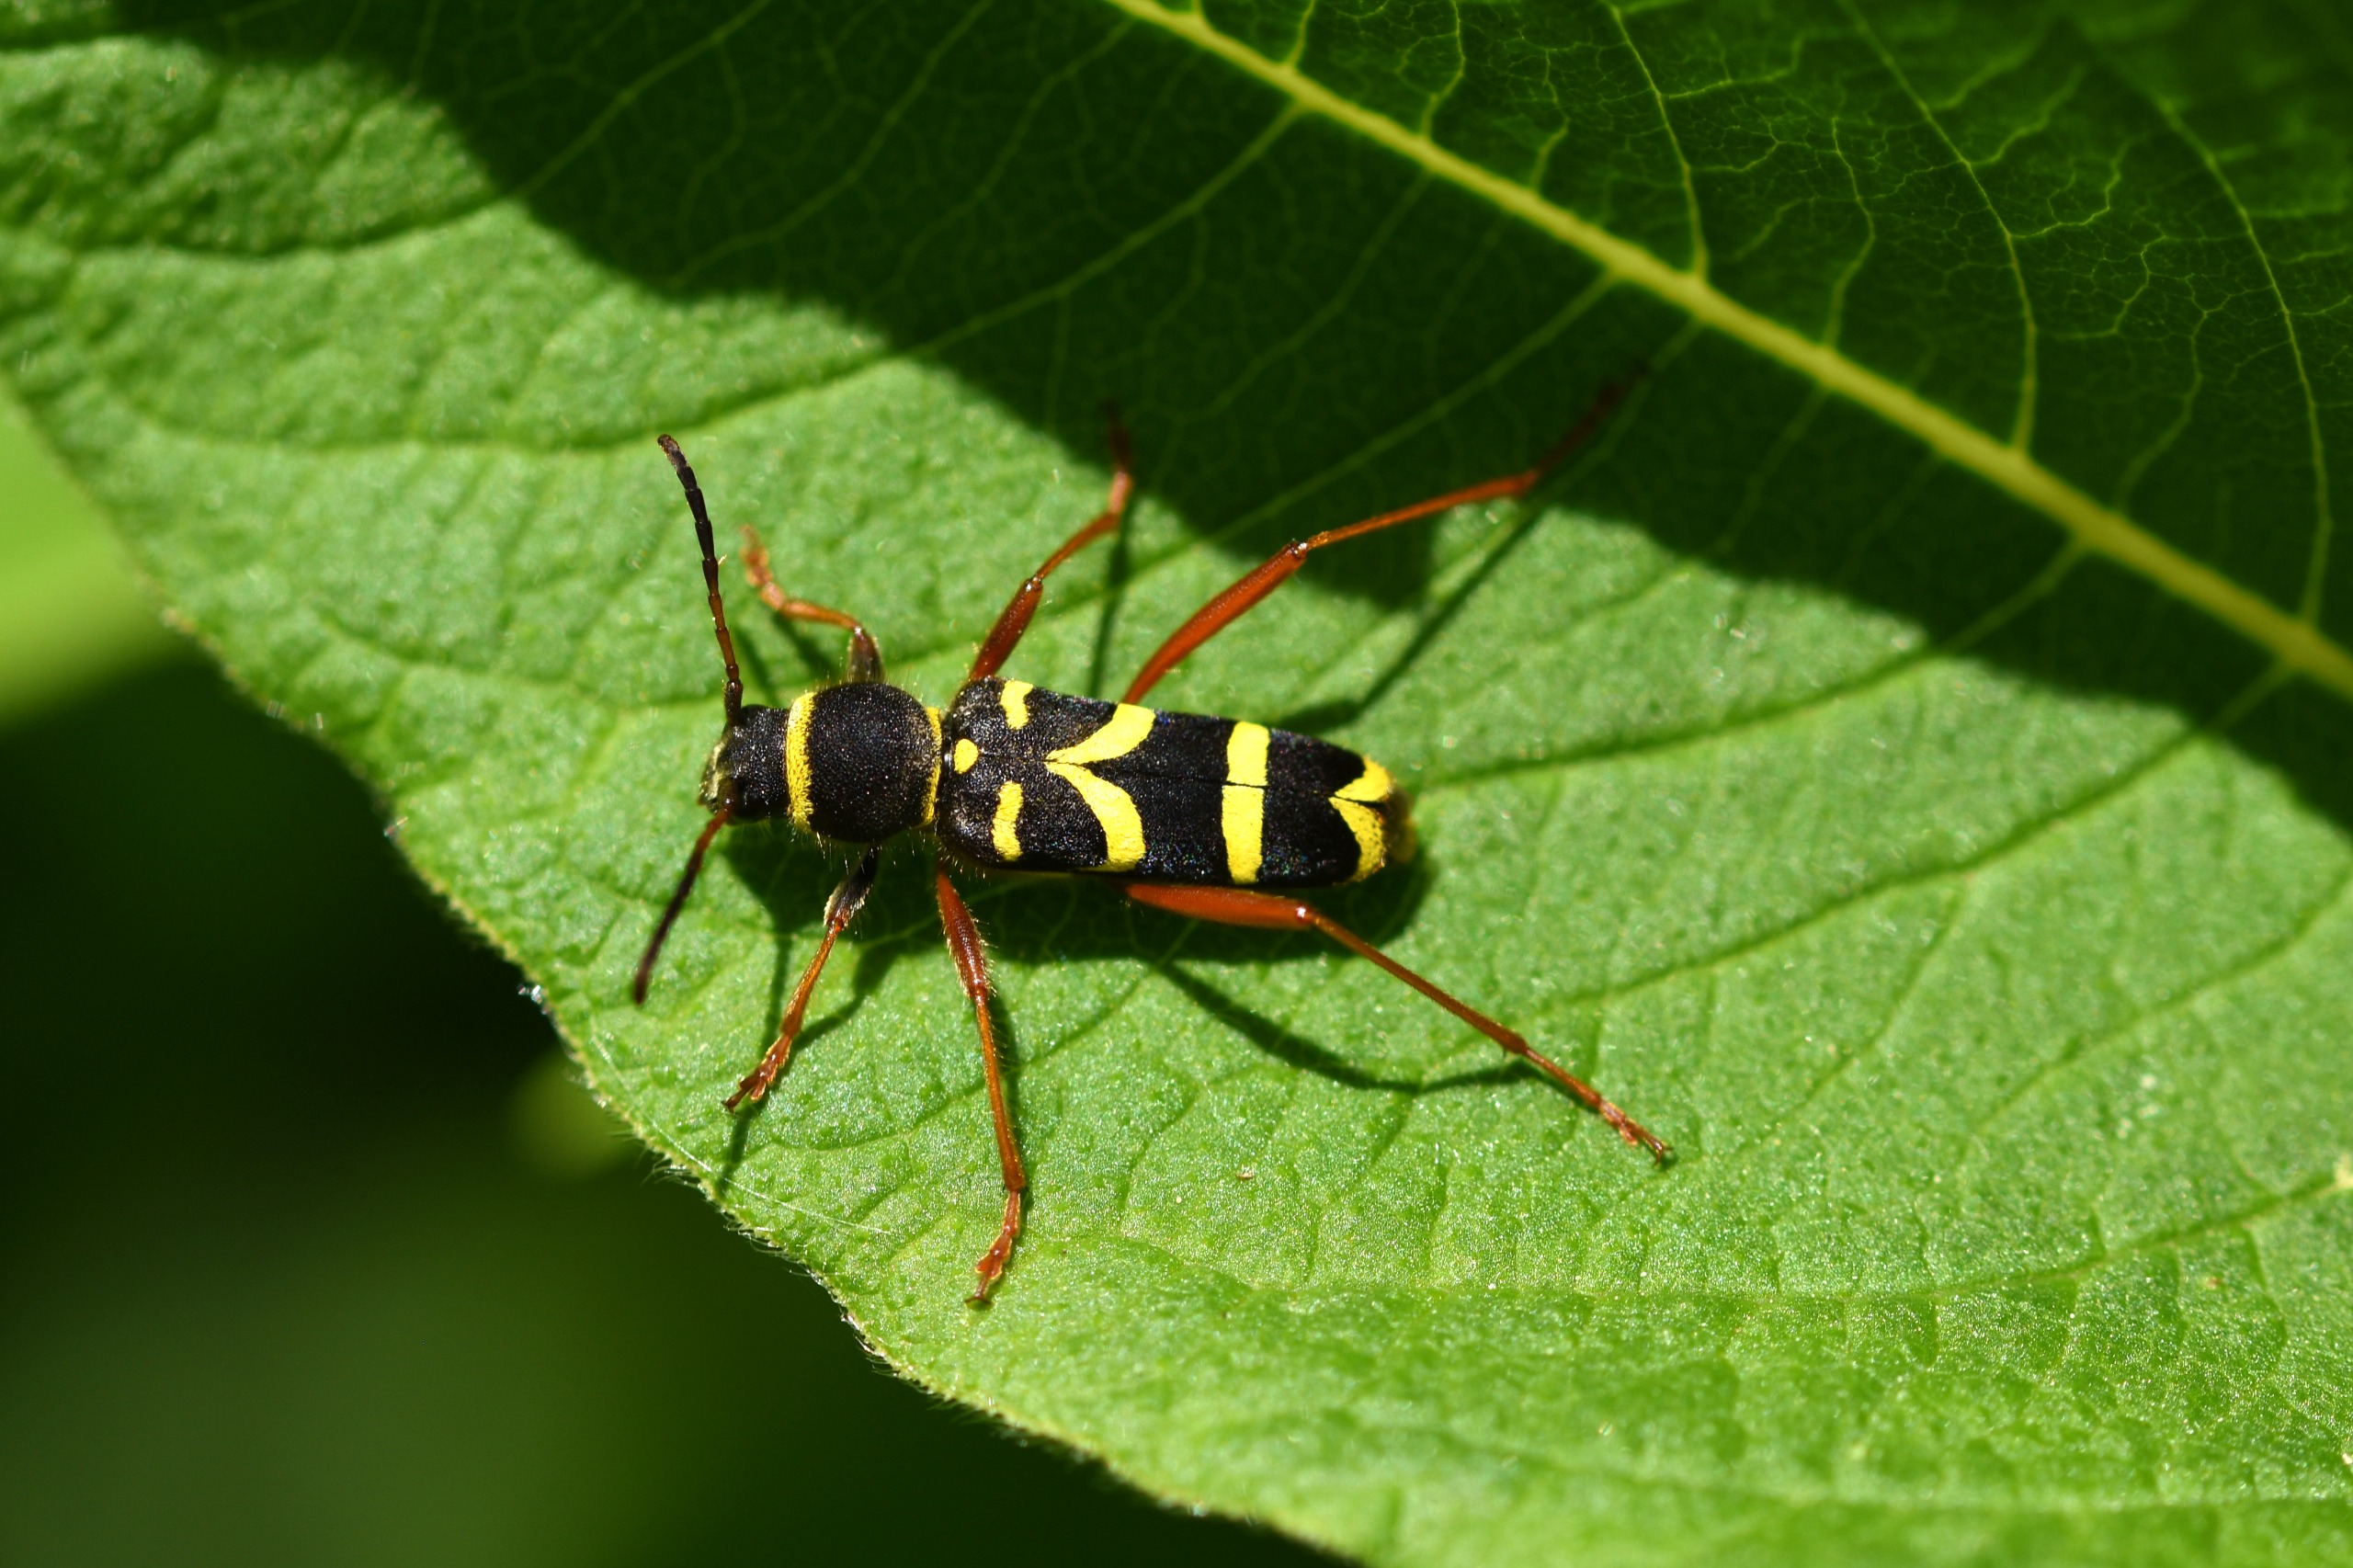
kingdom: Animalia
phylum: Arthropoda
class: Insecta
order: Coleoptera
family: Cerambycidae
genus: Clytus
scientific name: Clytus arietis
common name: Lille hvepsebuk
